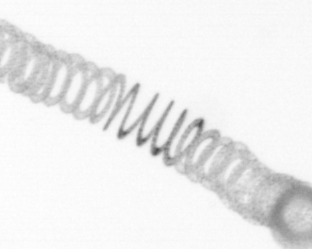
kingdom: Chromista
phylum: Ochrophyta
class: Bacillariophyceae
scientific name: Bacillariophyceae
